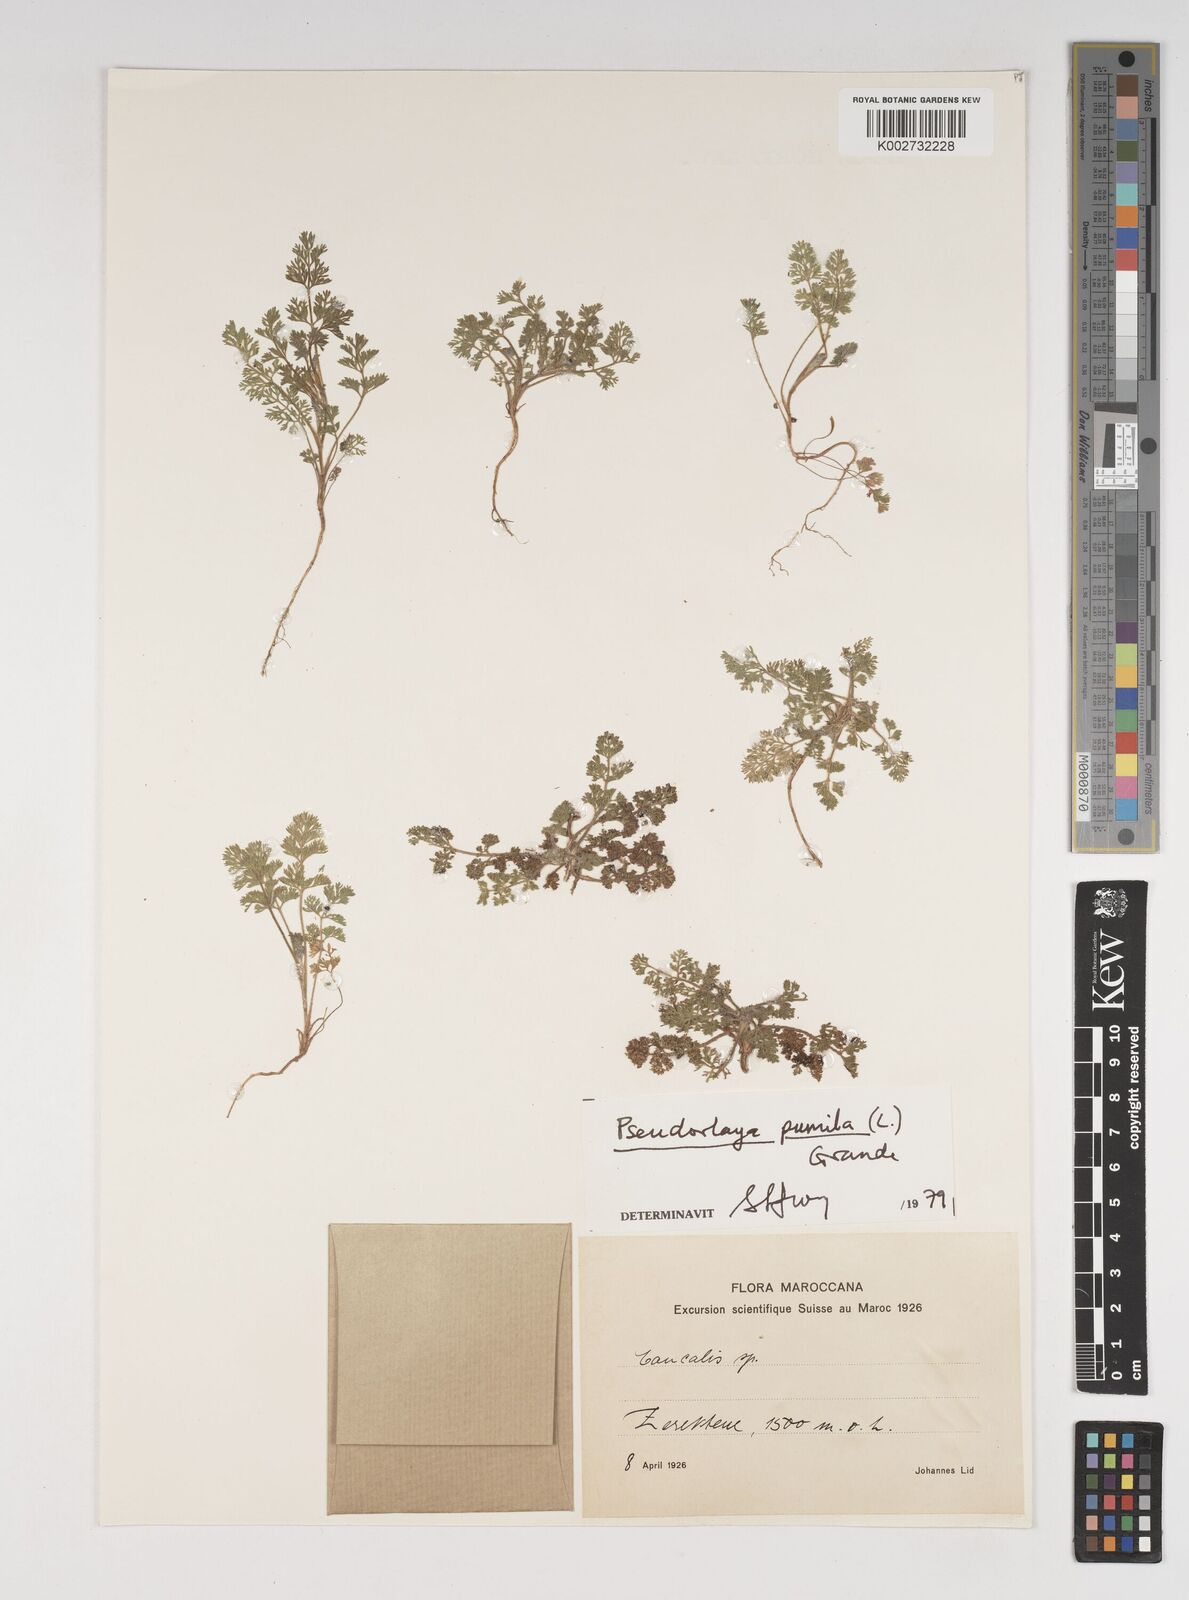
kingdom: Plantae
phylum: Tracheophyta
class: Magnoliopsida
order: Apiales
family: Apiaceae
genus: Daucus
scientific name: Daucus
